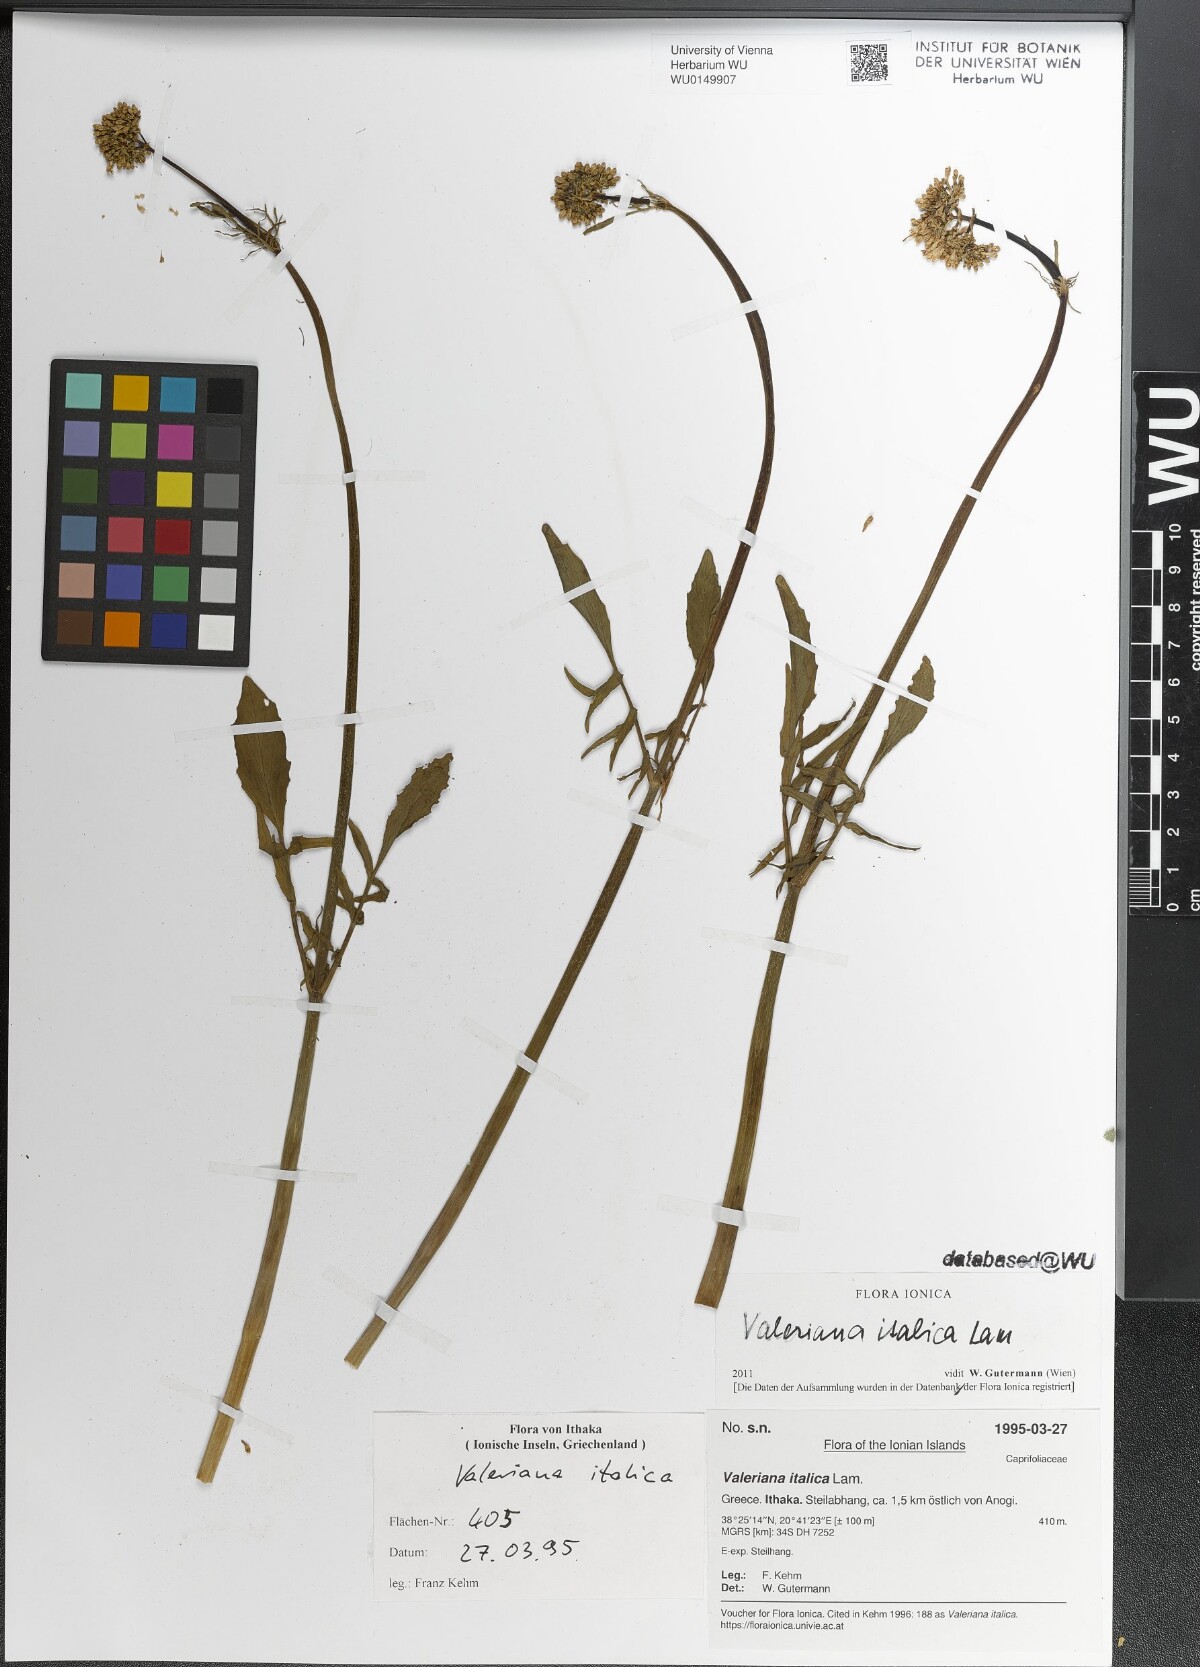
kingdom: Plantae
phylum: Tracheophyta
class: Magnoliopsida
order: Dipsacales
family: Caprifoliaceae
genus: Valeriana
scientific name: Valeriana dioscoridis
